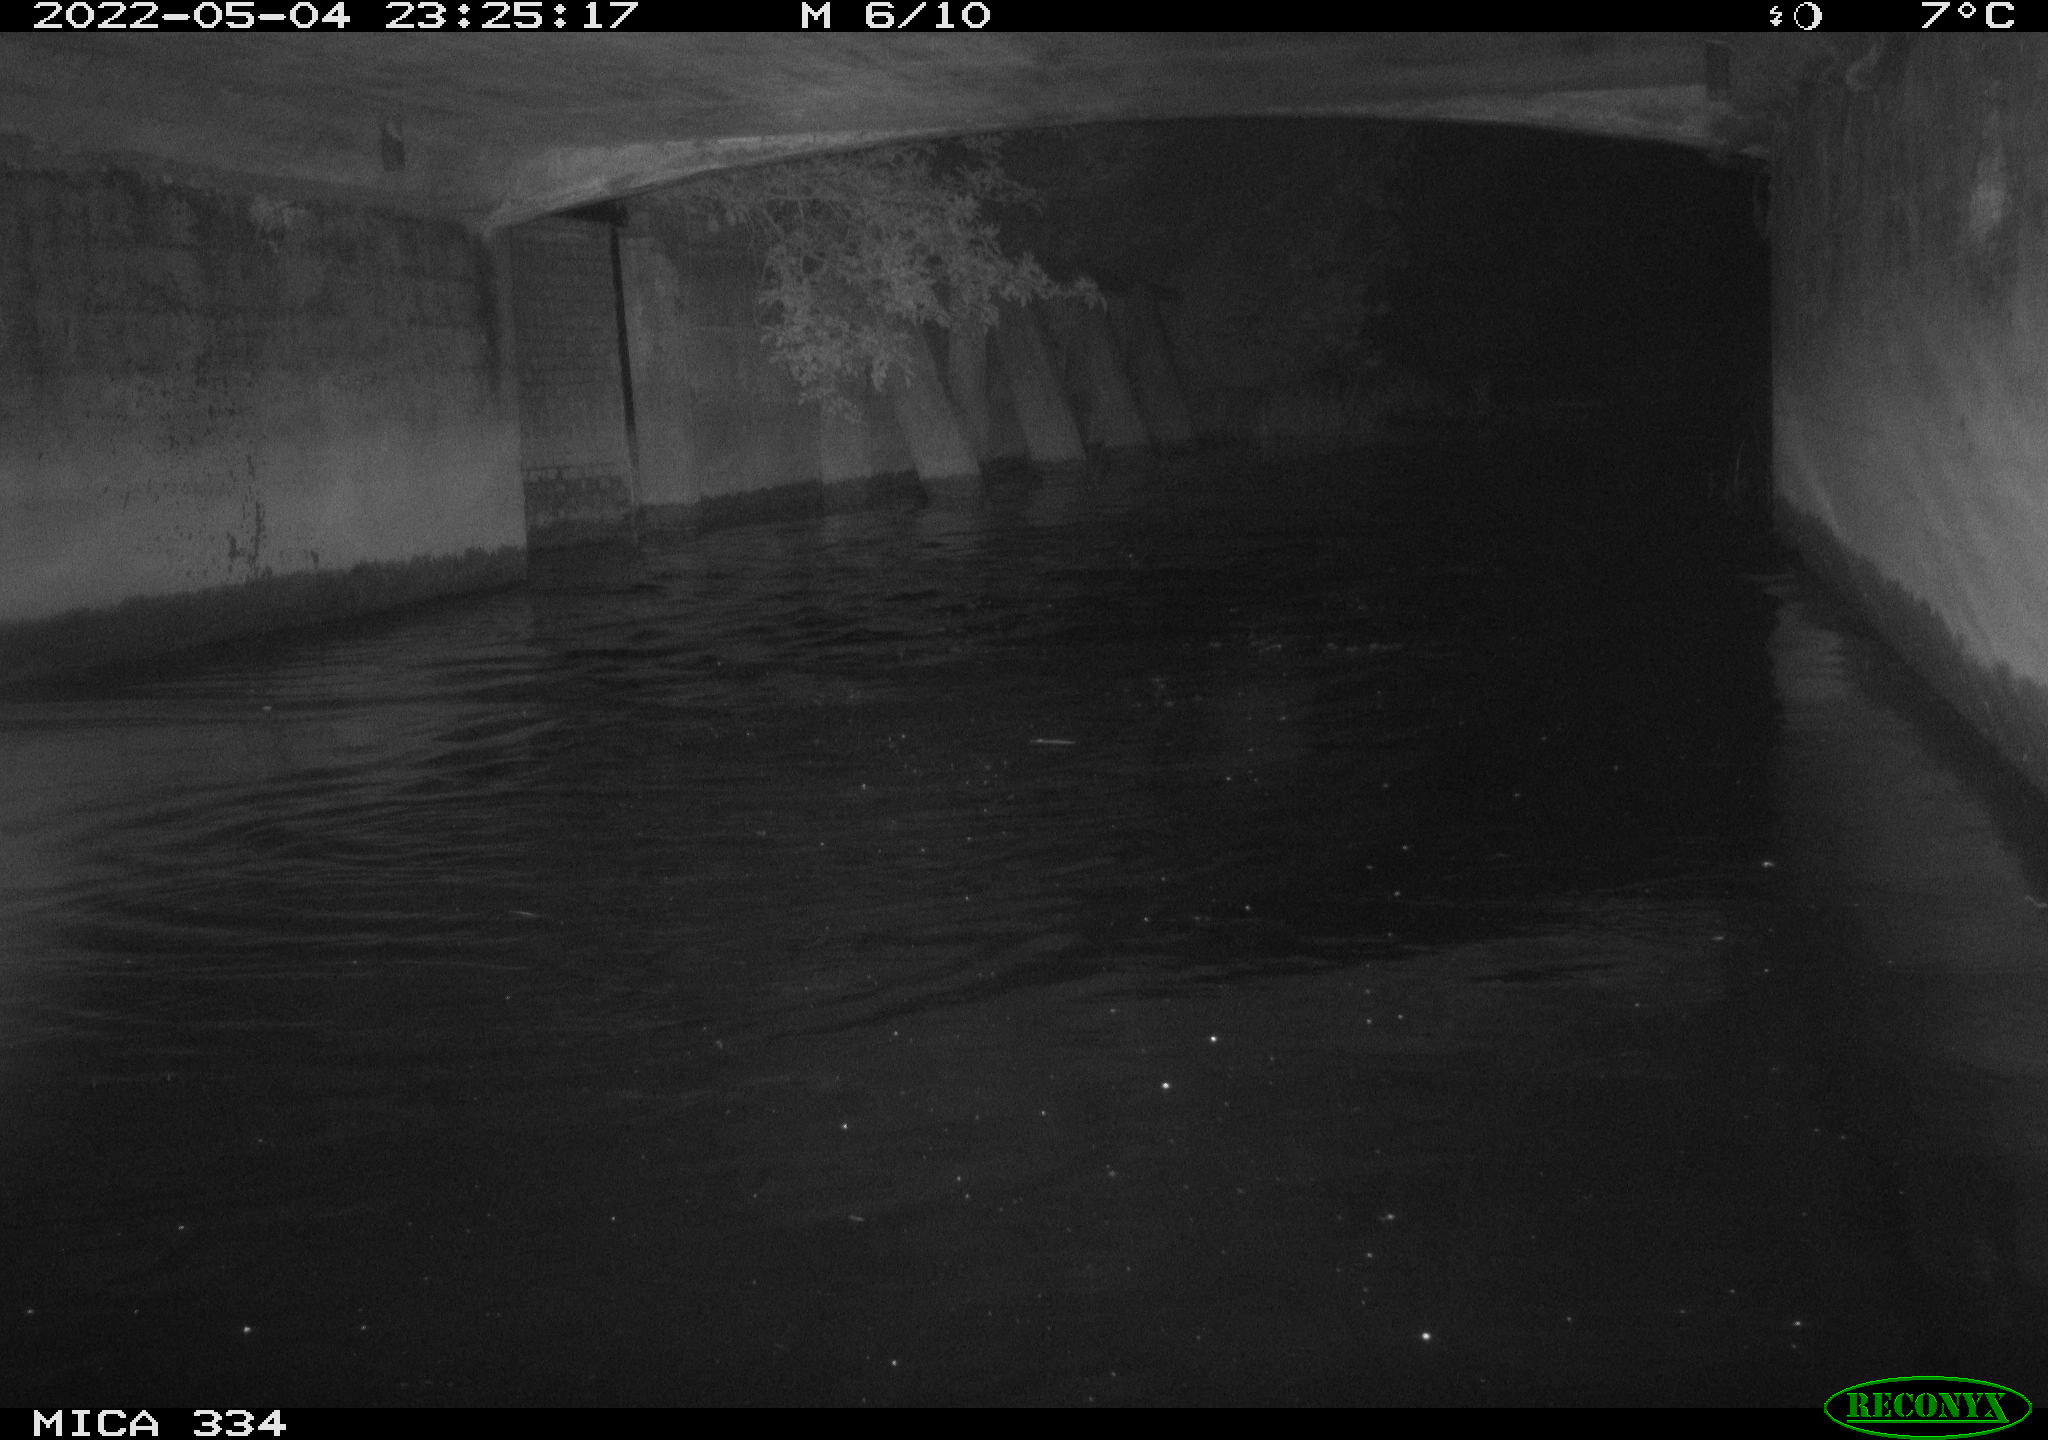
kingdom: Animalia
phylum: Chordata
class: Aves
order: Anseriformes
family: Anatidae
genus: Anas
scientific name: Anas platyrhynchos
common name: Mallard
